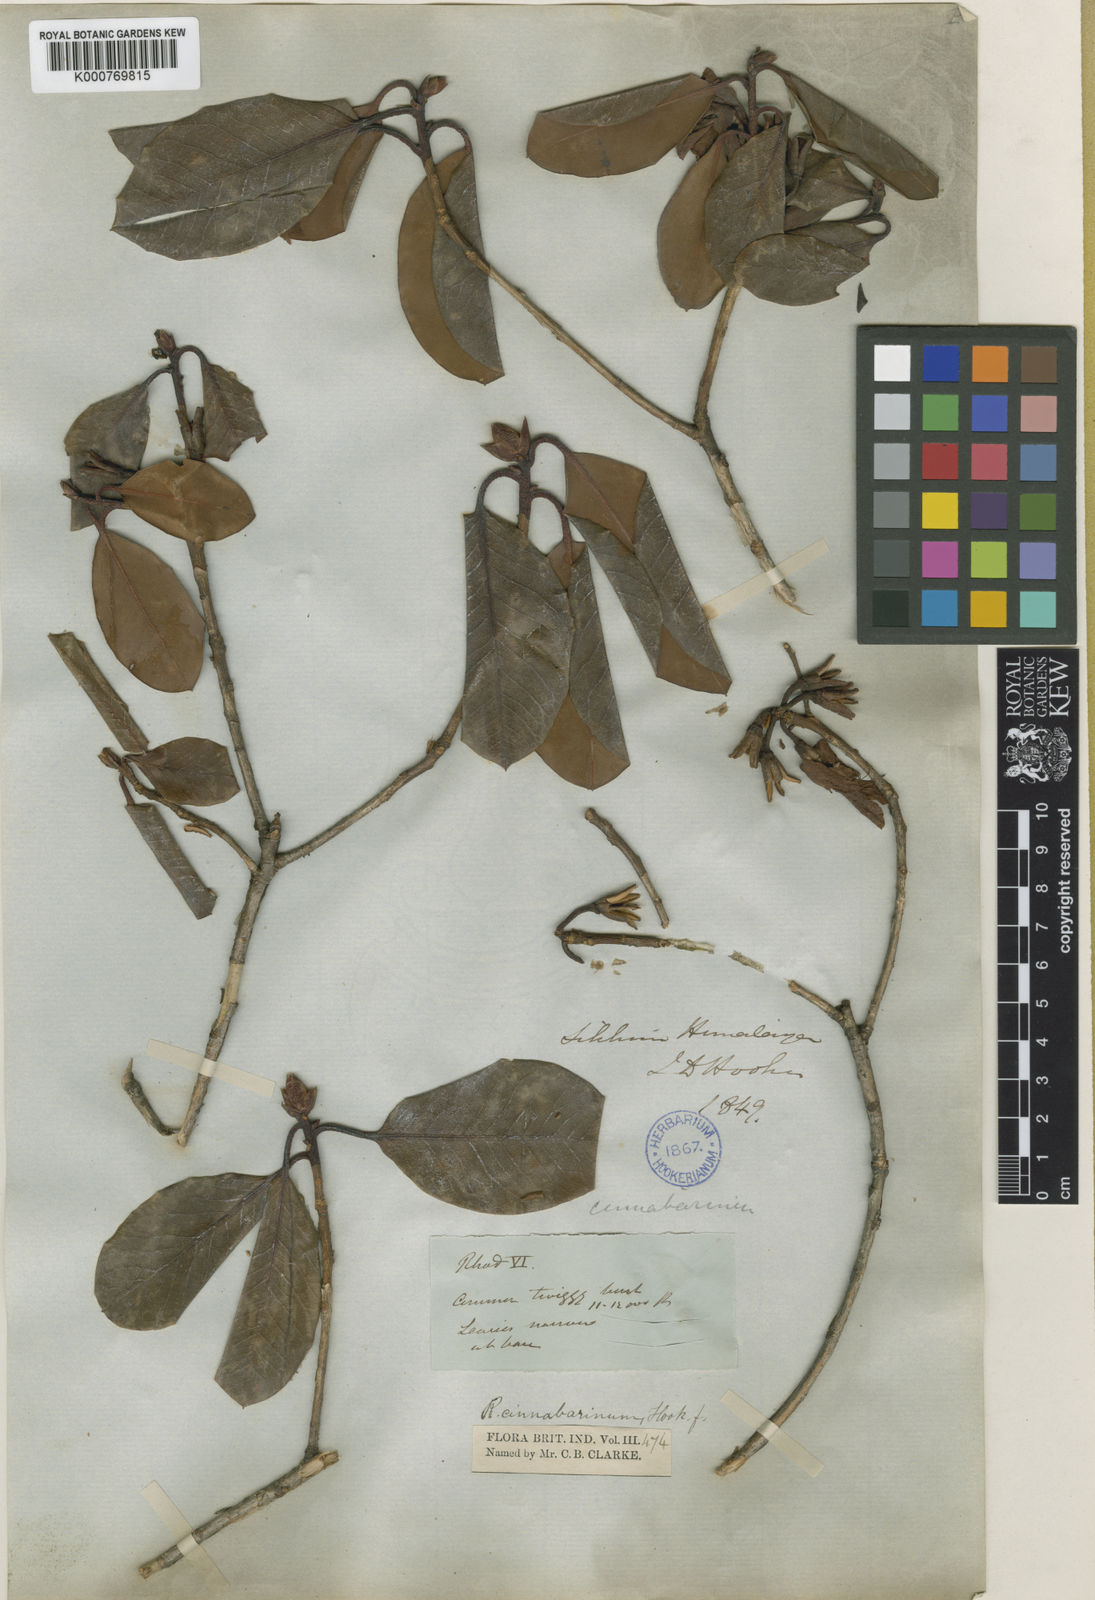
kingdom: Plantae
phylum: Tracheophyta
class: Magnoliopsida
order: Ericales
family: Ericaceae
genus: Rhododendron
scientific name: Rhododendron cinnabarinum
